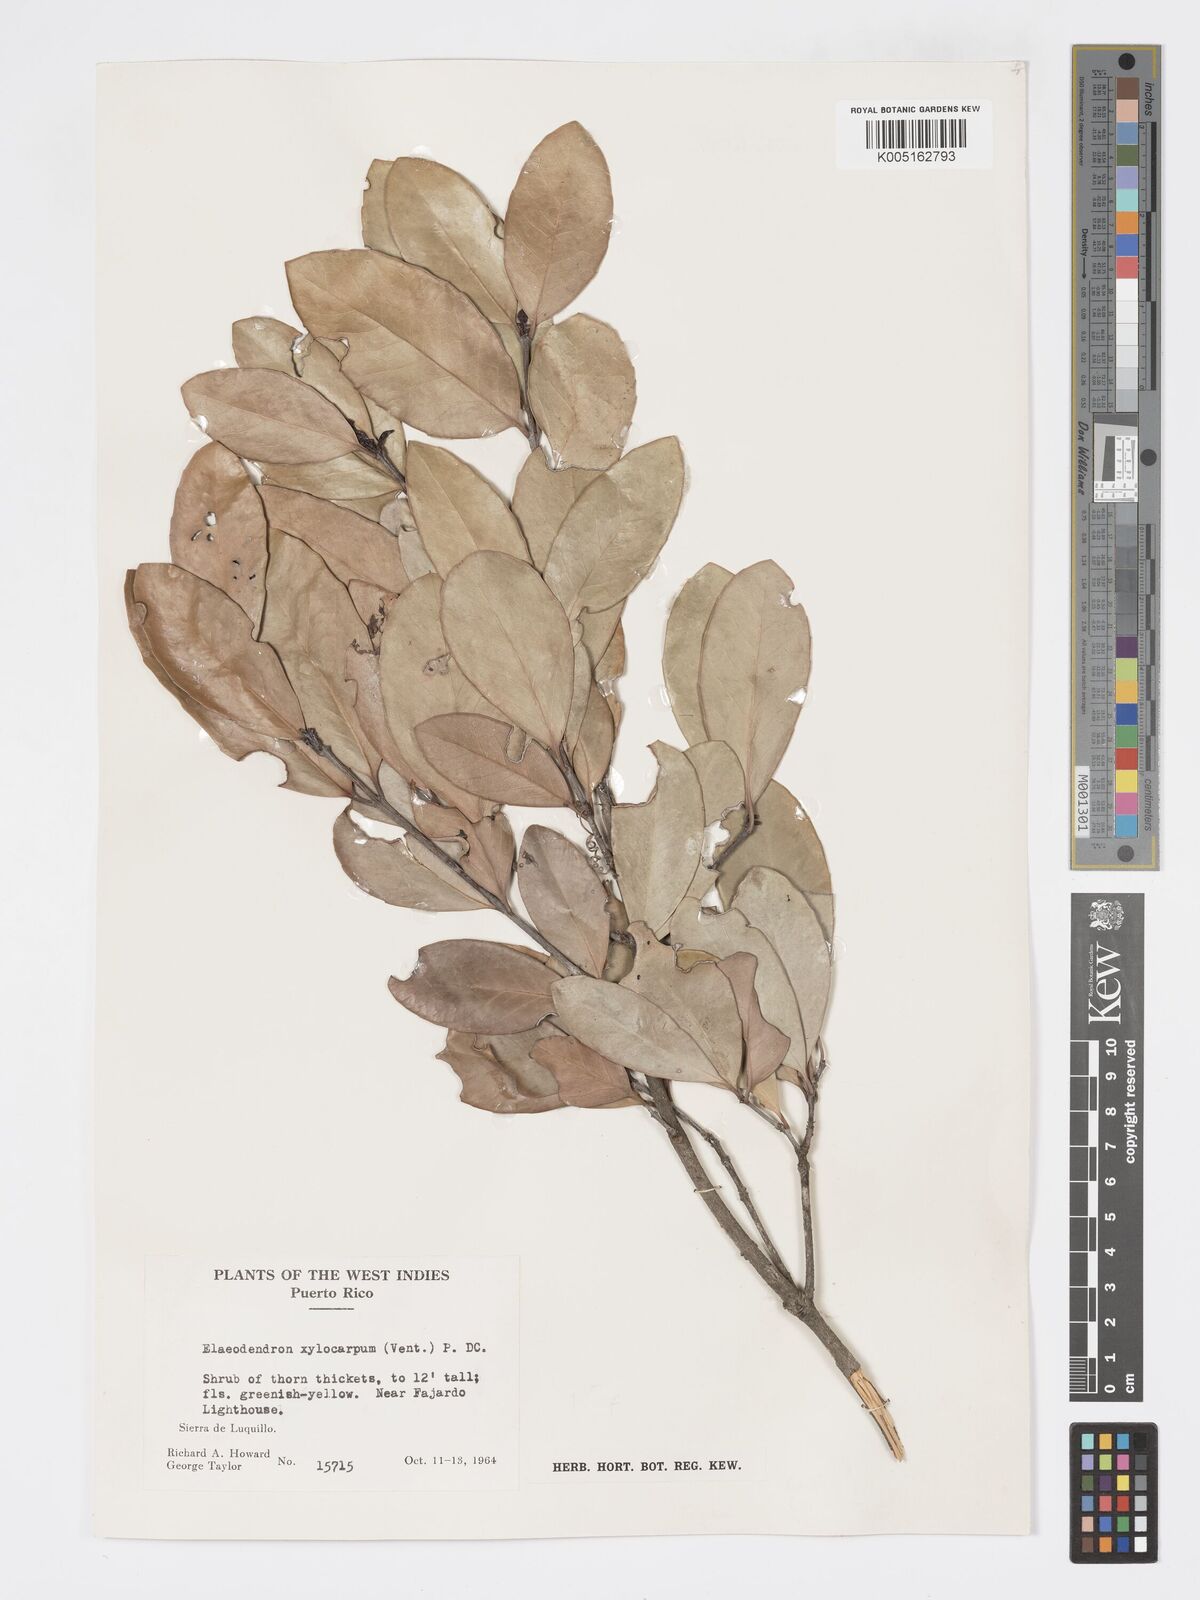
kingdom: Plantae
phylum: Tracheophyta
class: Magnoliopsida
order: Celastrales
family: Celastraceae
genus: Elaeodendron
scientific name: Elaeodendron xylocarpum
